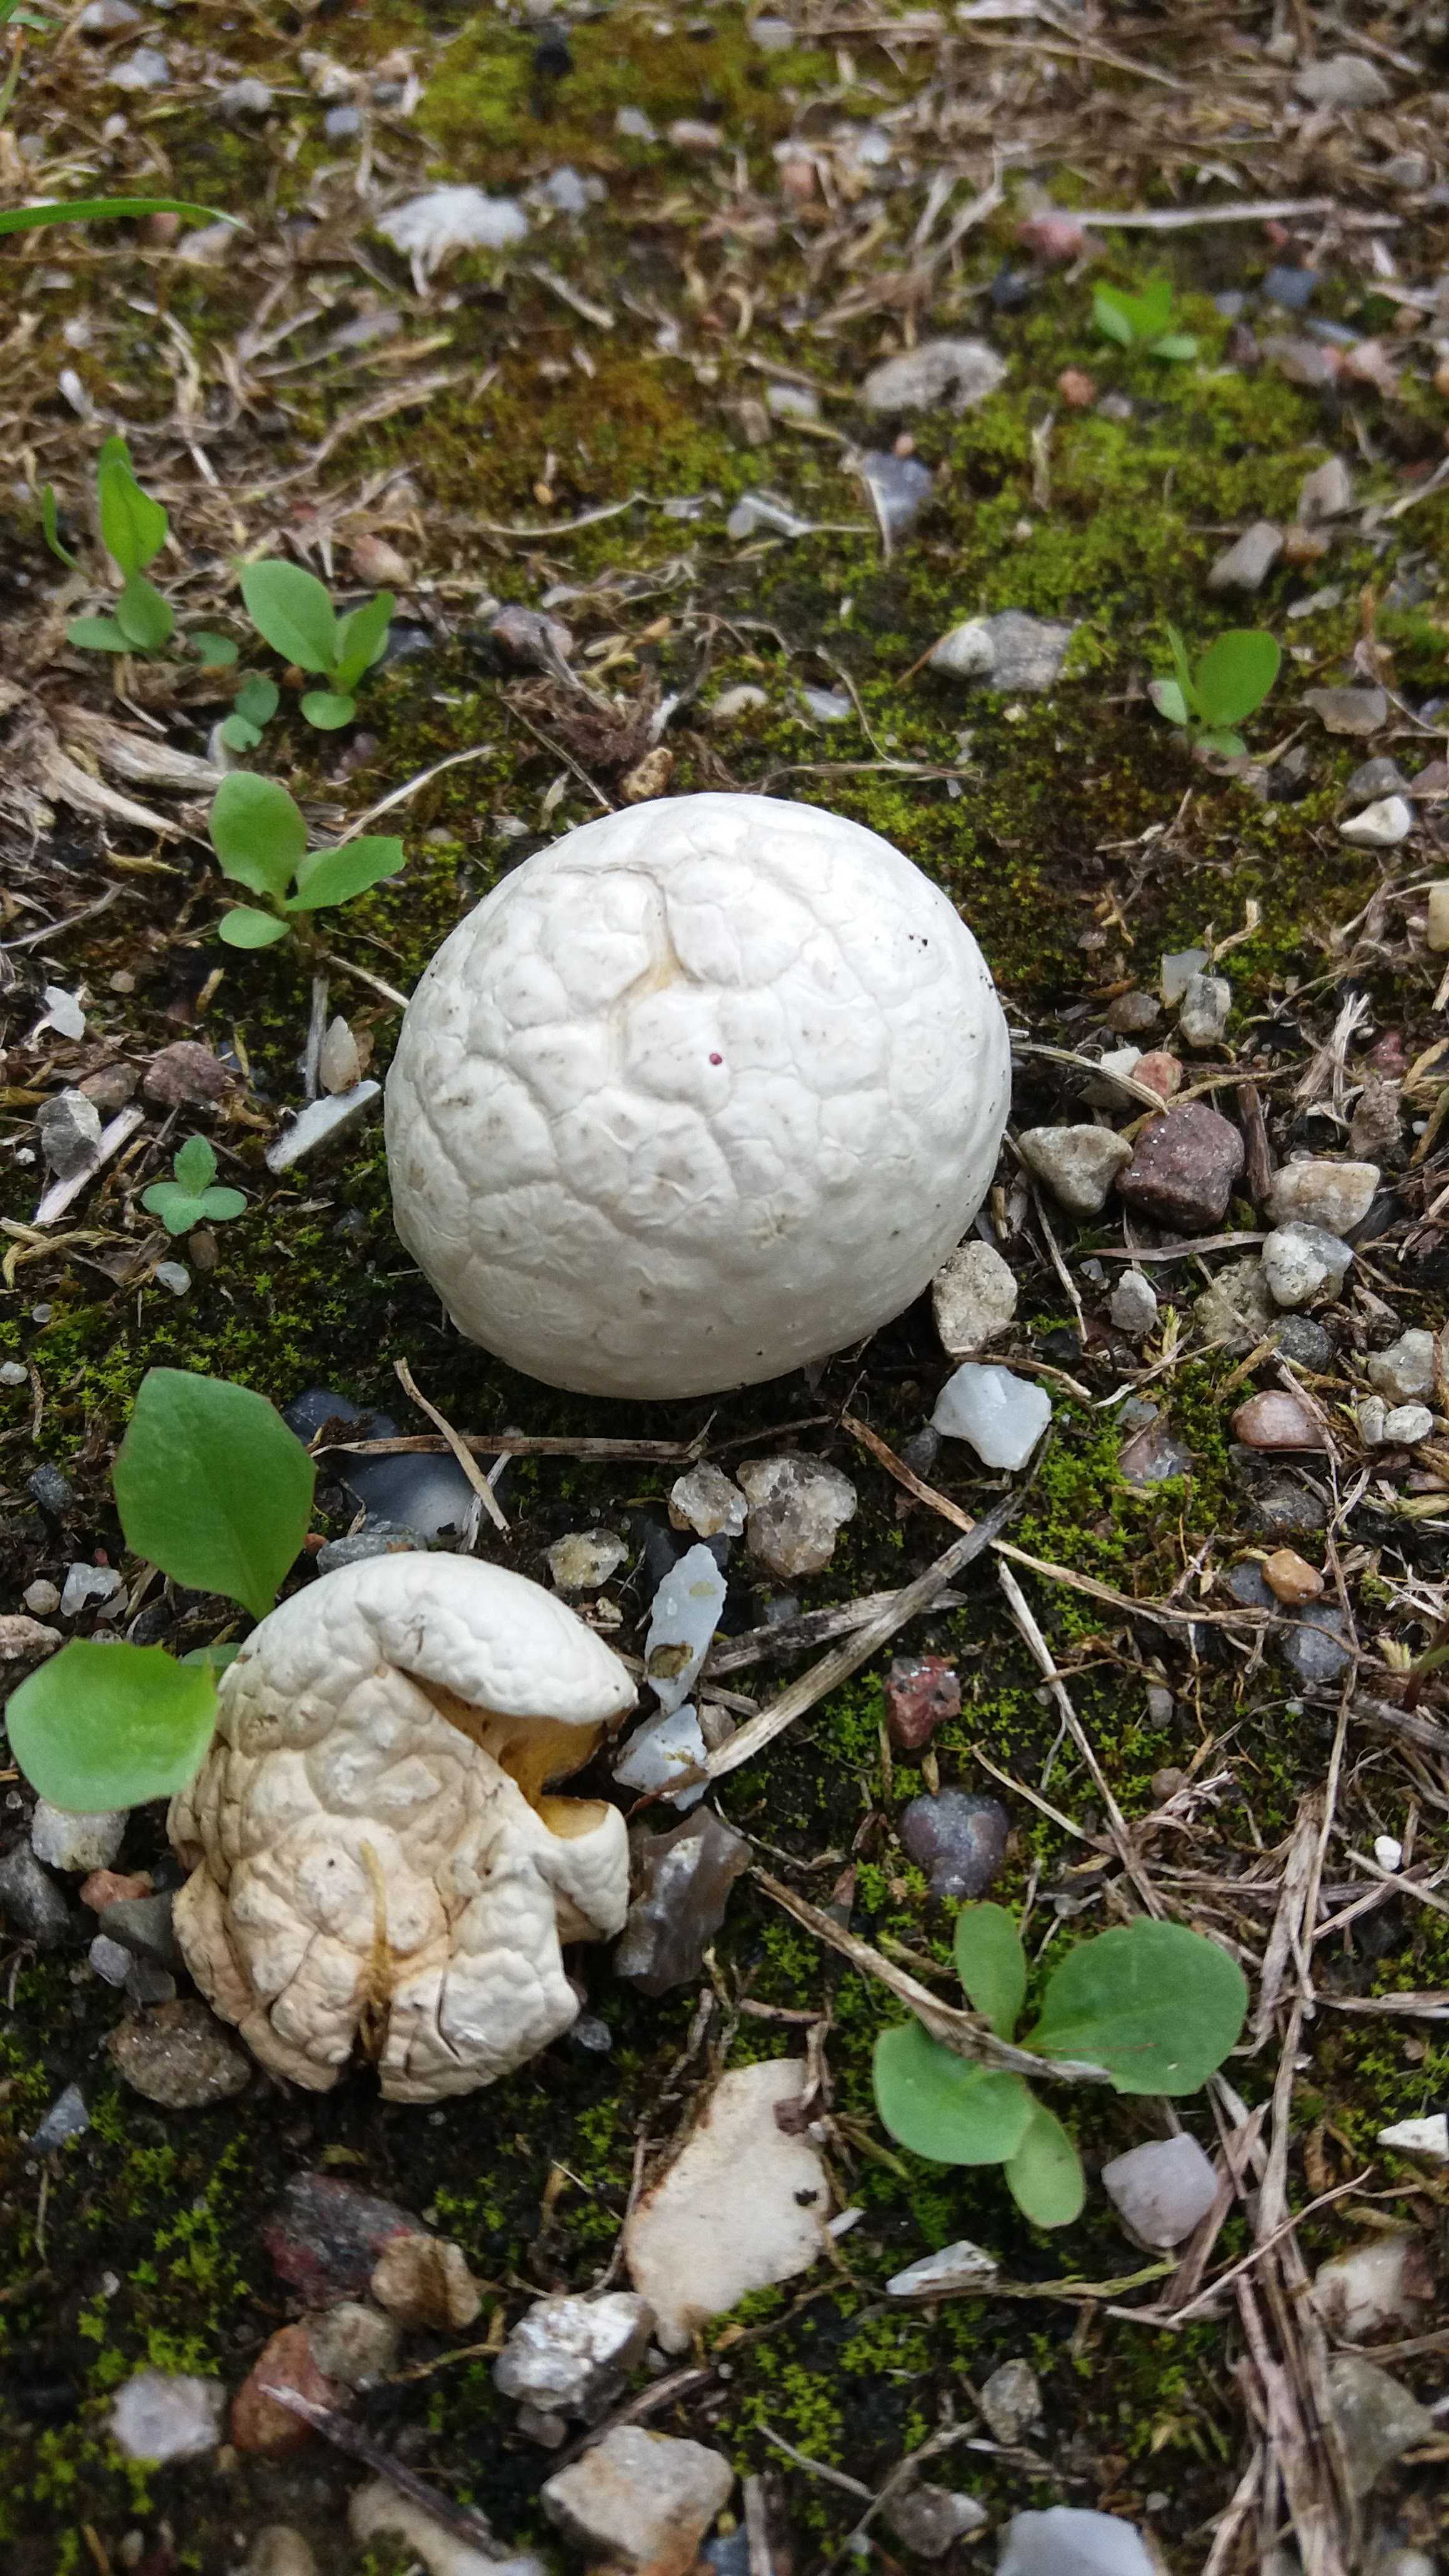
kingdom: Fungi
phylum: Basidiomycota
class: Agaricomycetes
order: Agaricales
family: Agaricaceae
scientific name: Agaricaceae
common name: champignonfamilien
